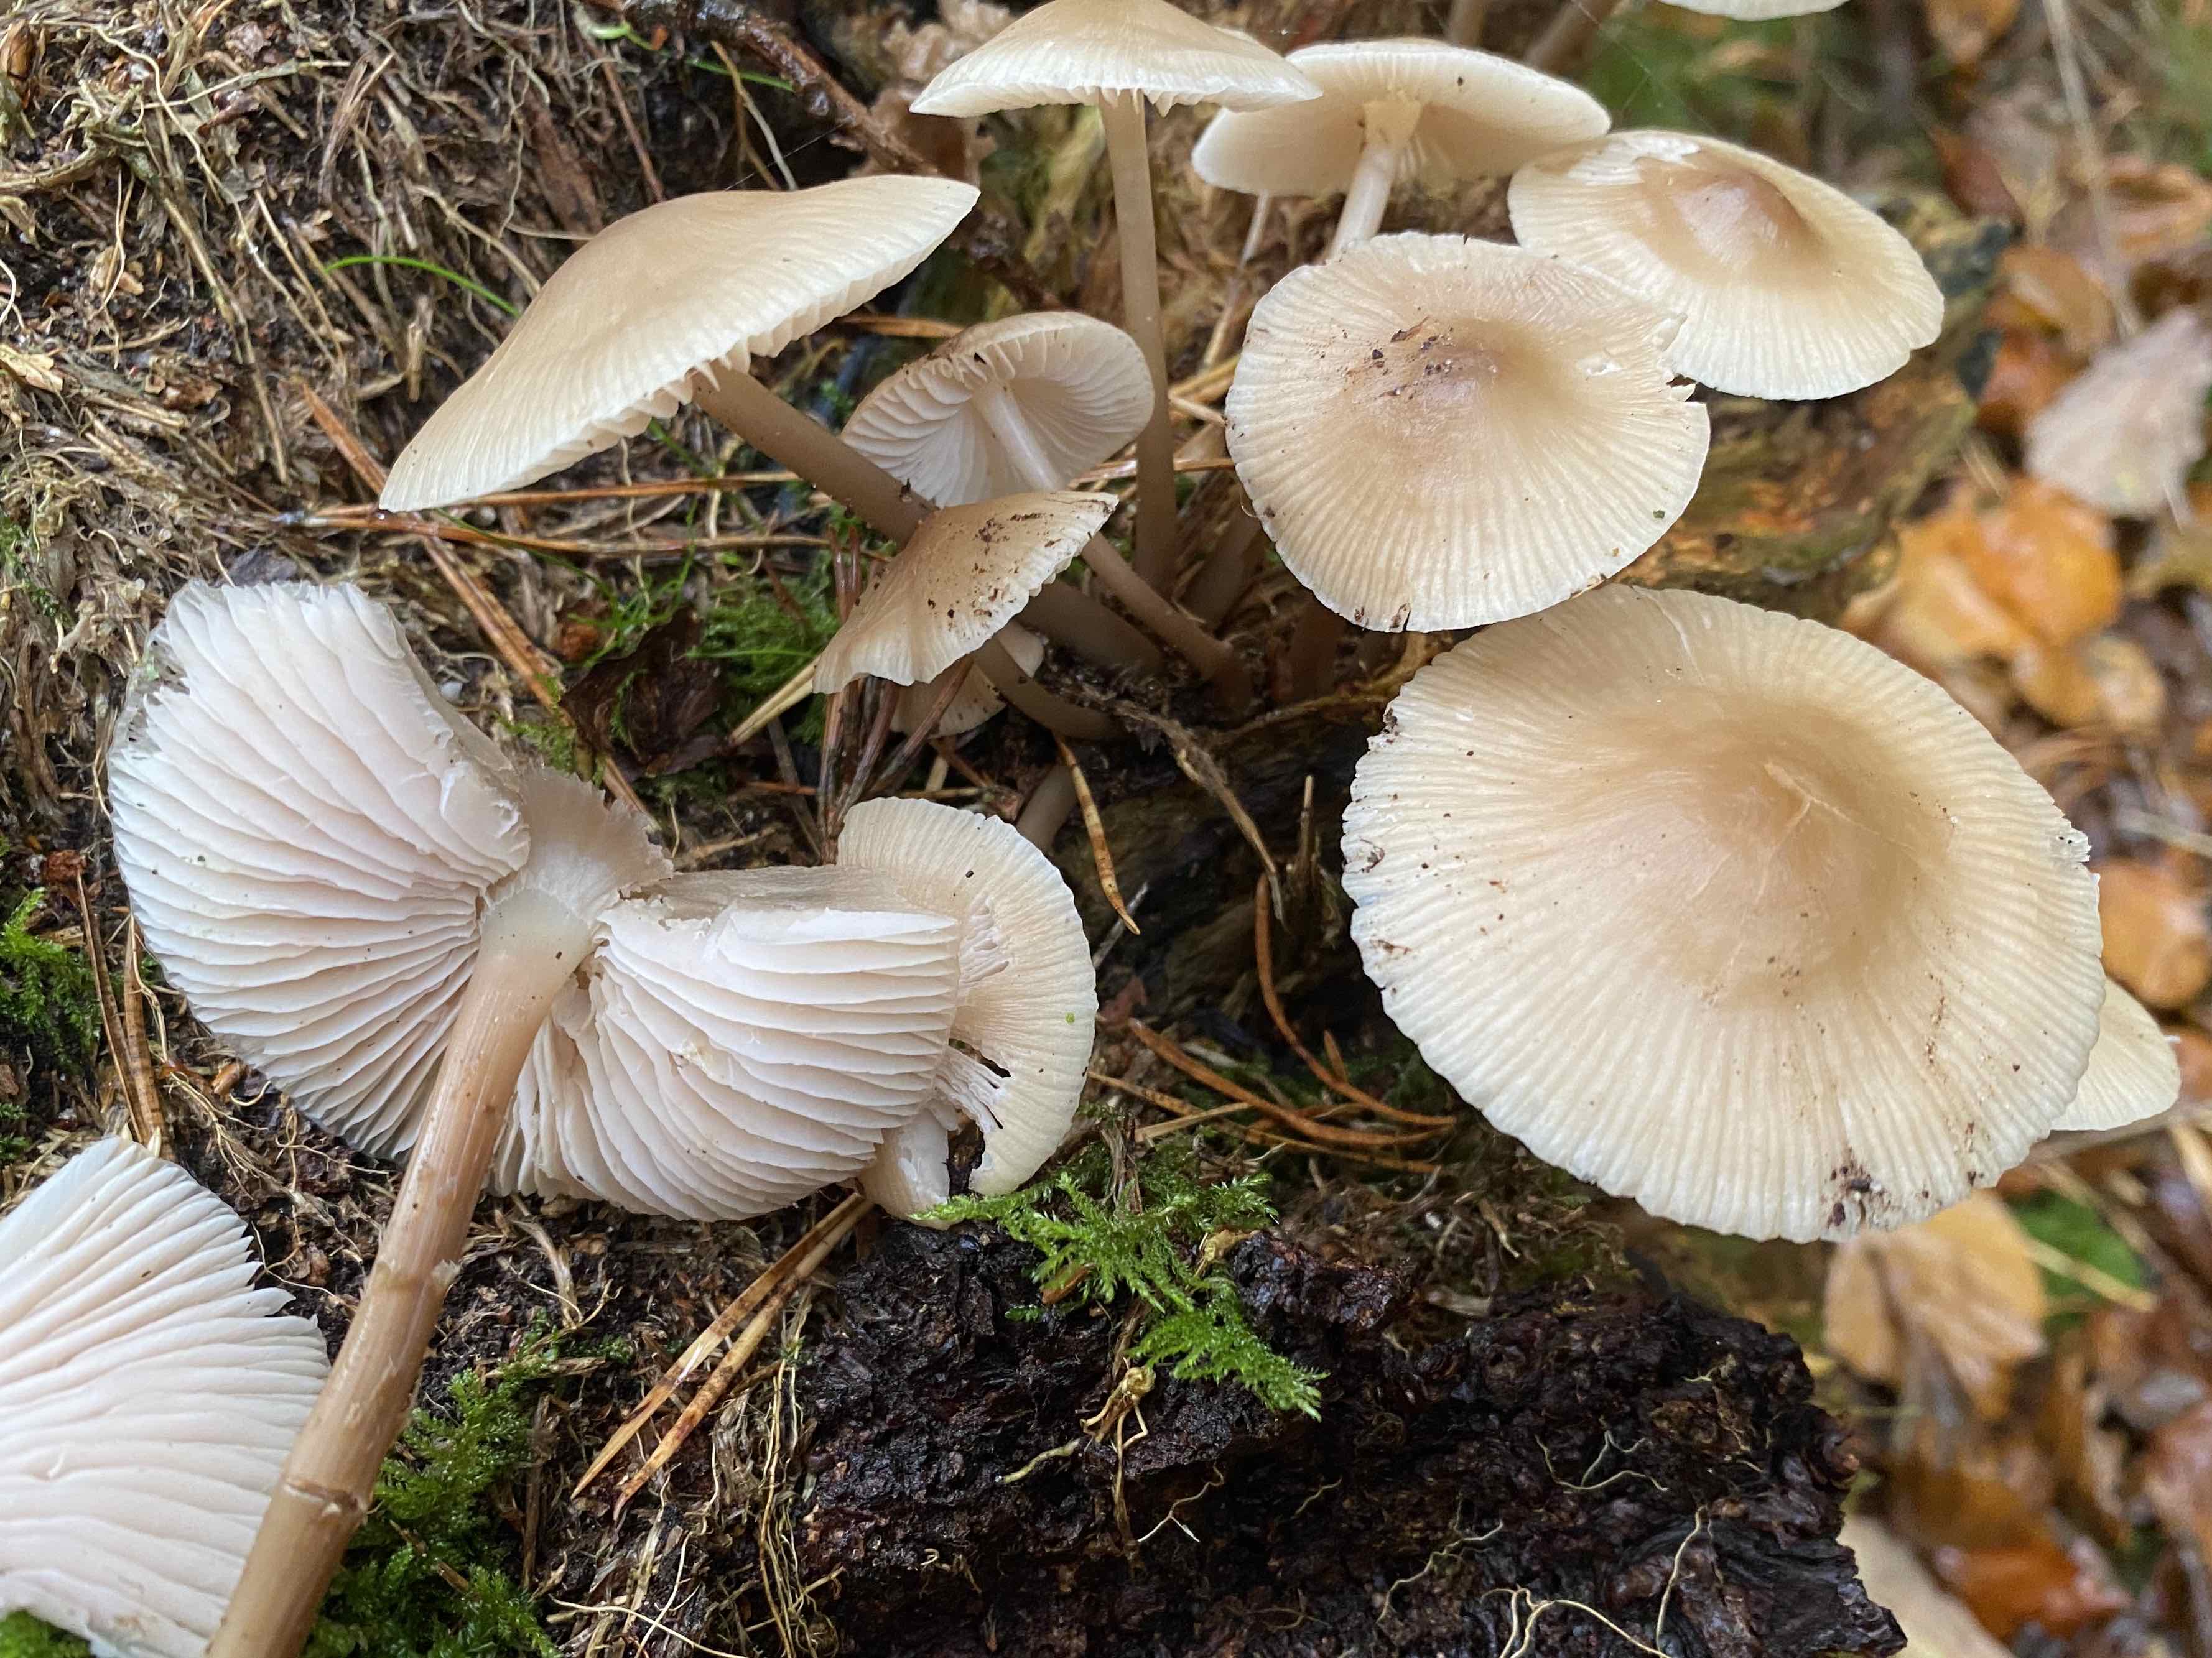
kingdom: Fungi
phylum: Basidiomycota
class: Agaricomycetes
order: Agaricales
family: Mycenaceae
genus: Mycena
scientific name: Mycena galericulata
